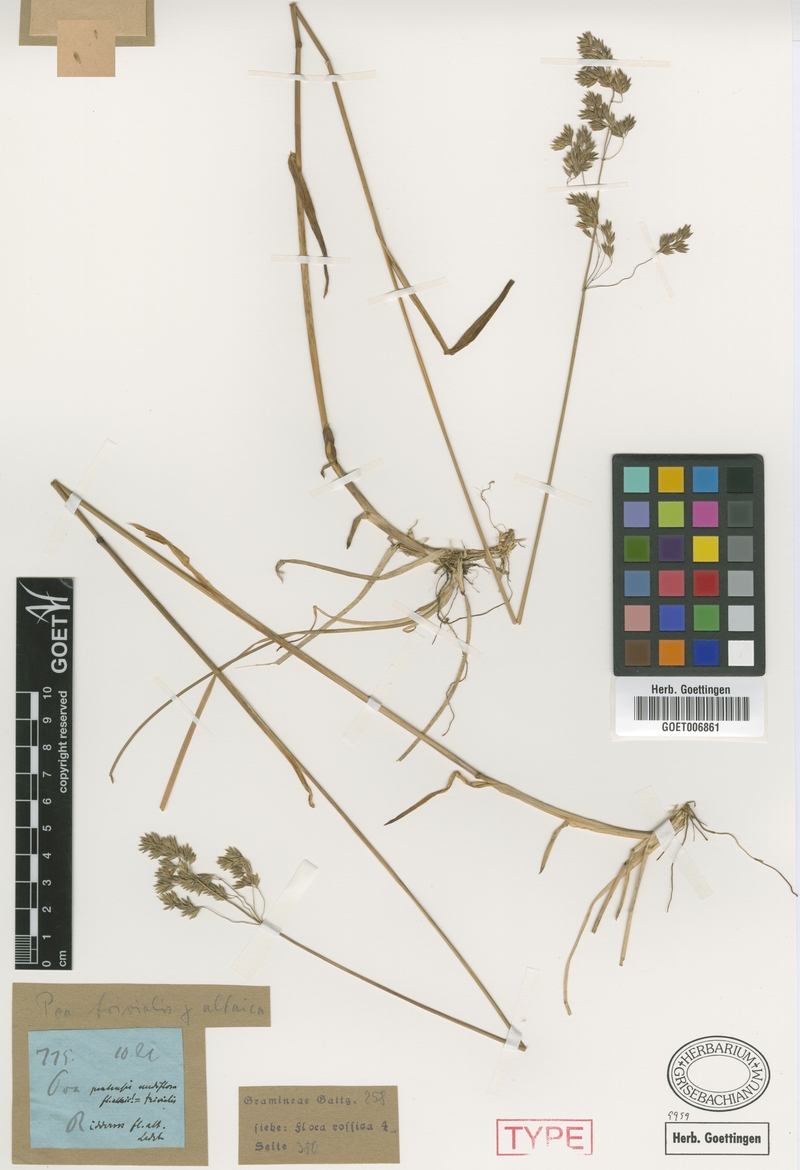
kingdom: Plantae
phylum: Tracheophyta
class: Liliopsida
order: Poales
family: Poaceae
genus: Poa
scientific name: Poa sibirica
